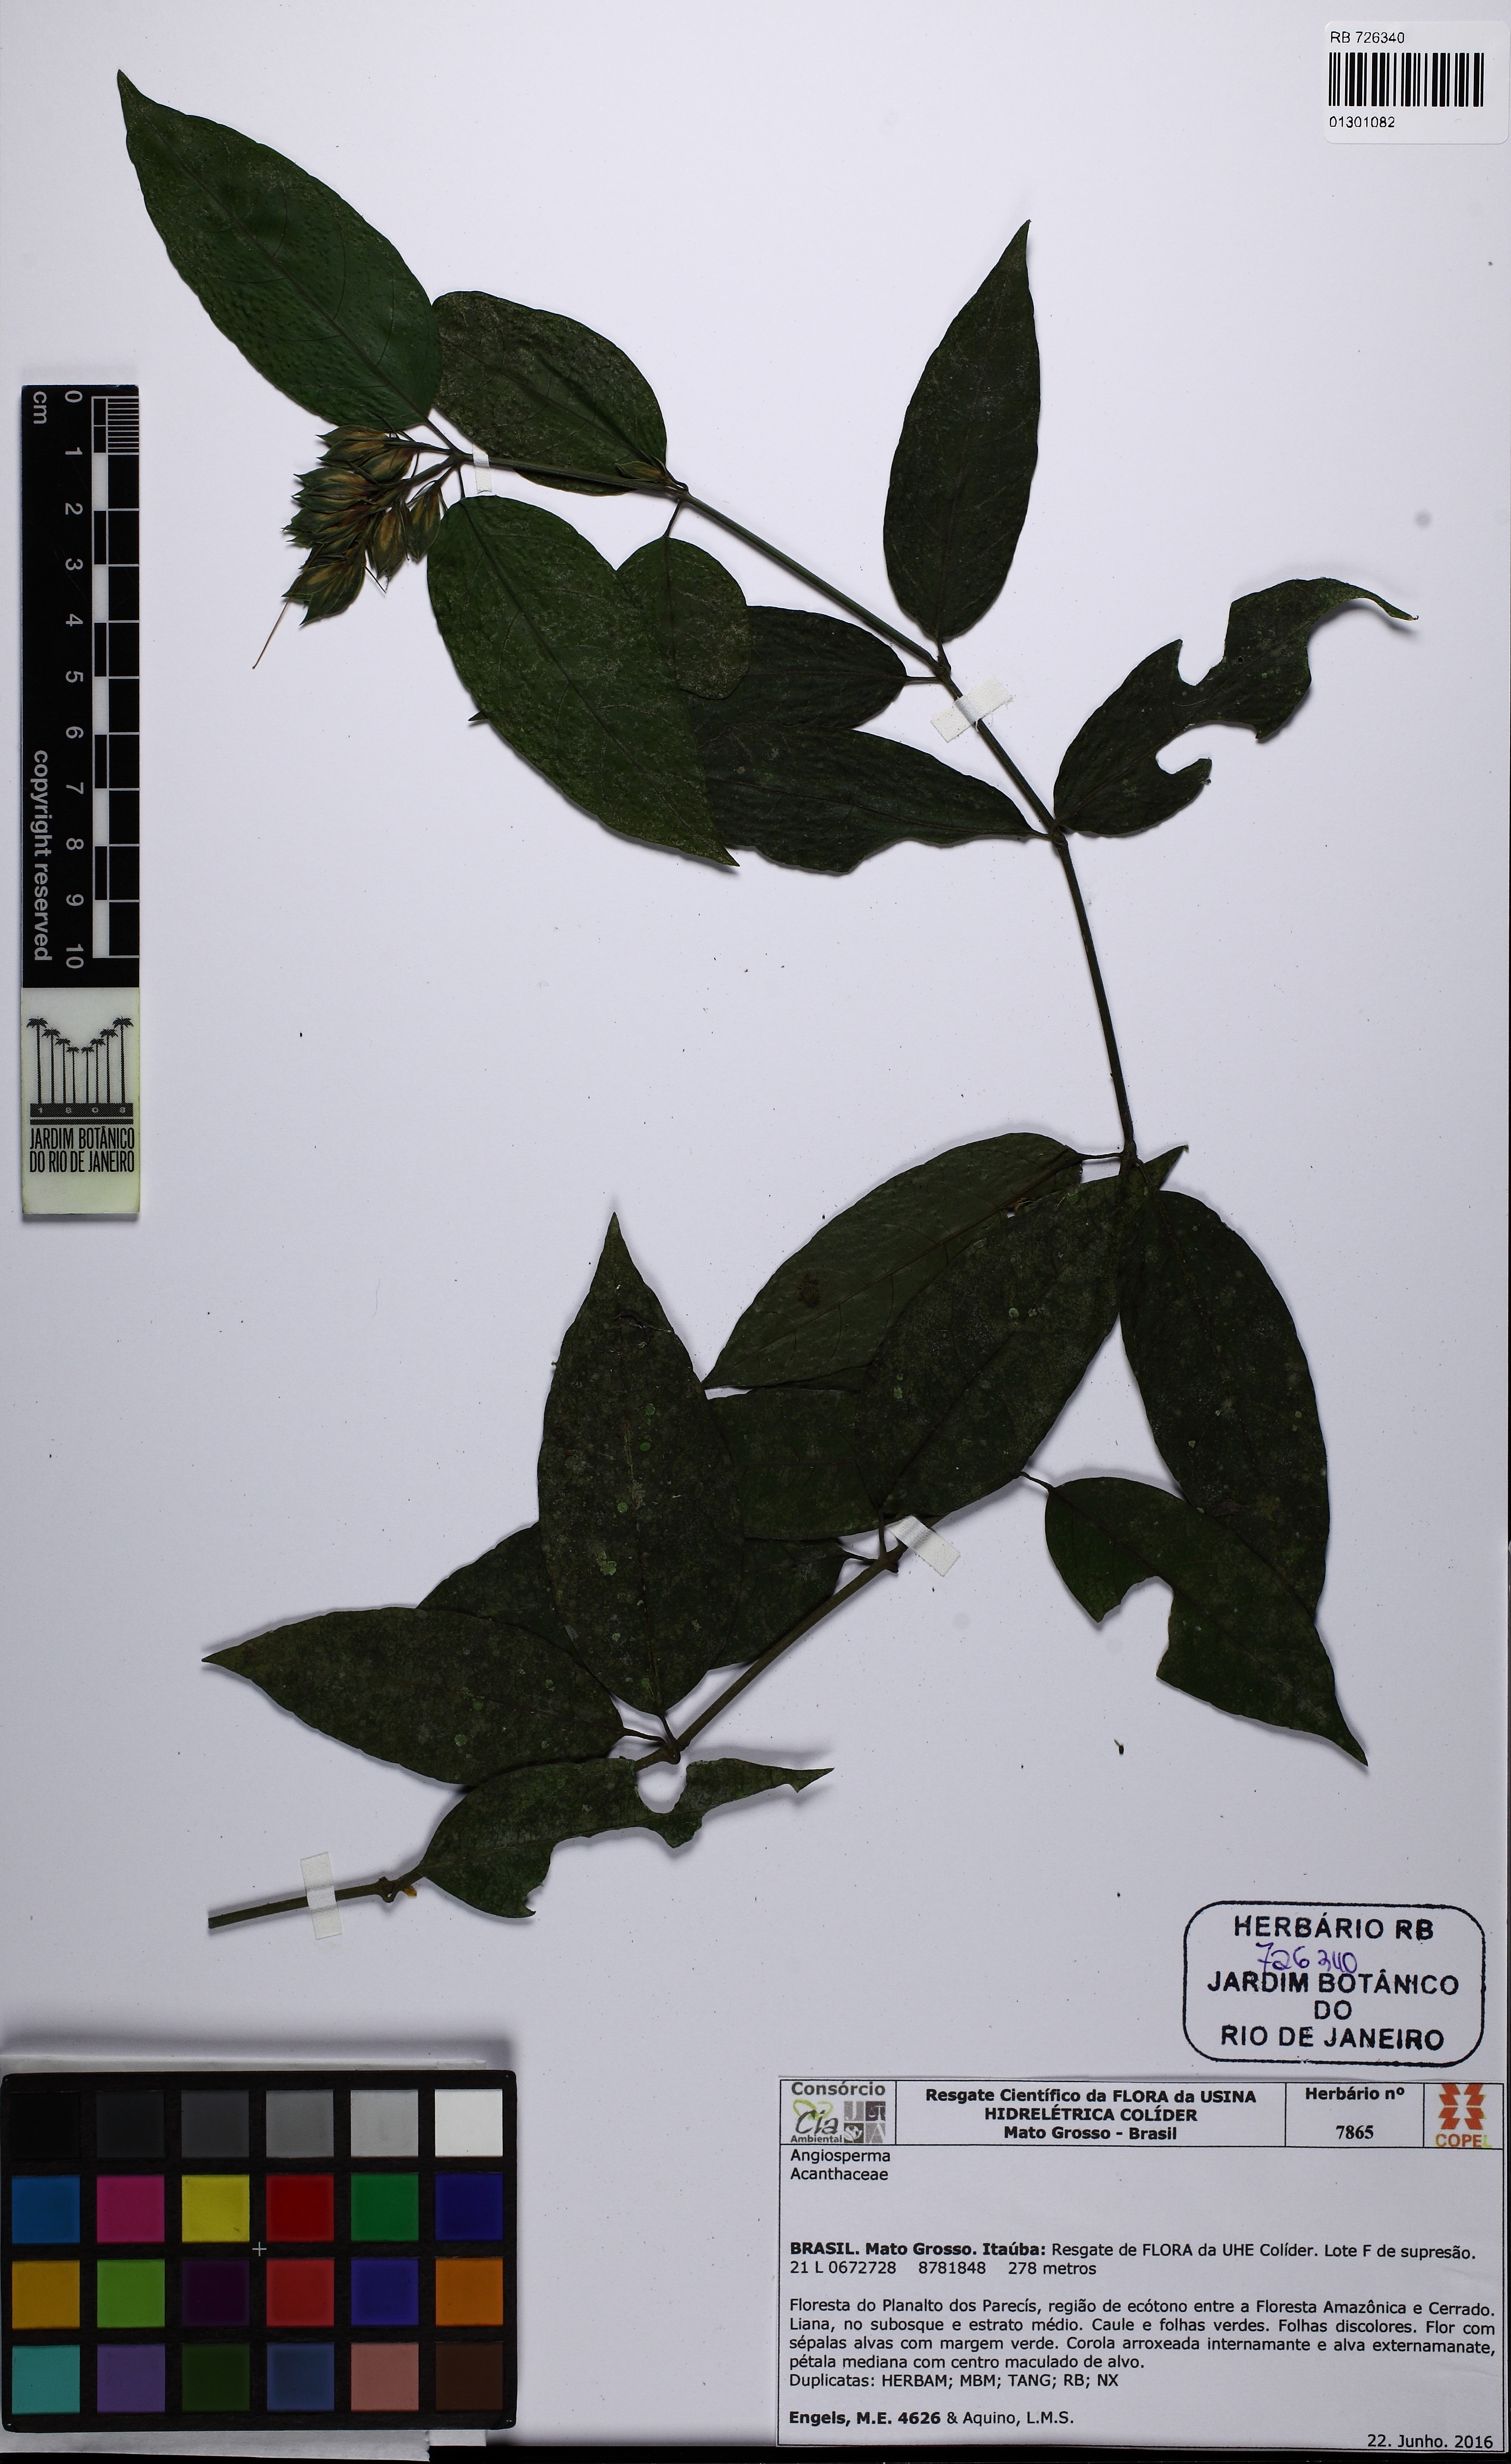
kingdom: Plantae
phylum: Tracheophyta
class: Magnoliopsida
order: Lamiales
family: Acanthaceae
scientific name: Acanthaceae
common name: Acanthaceae
